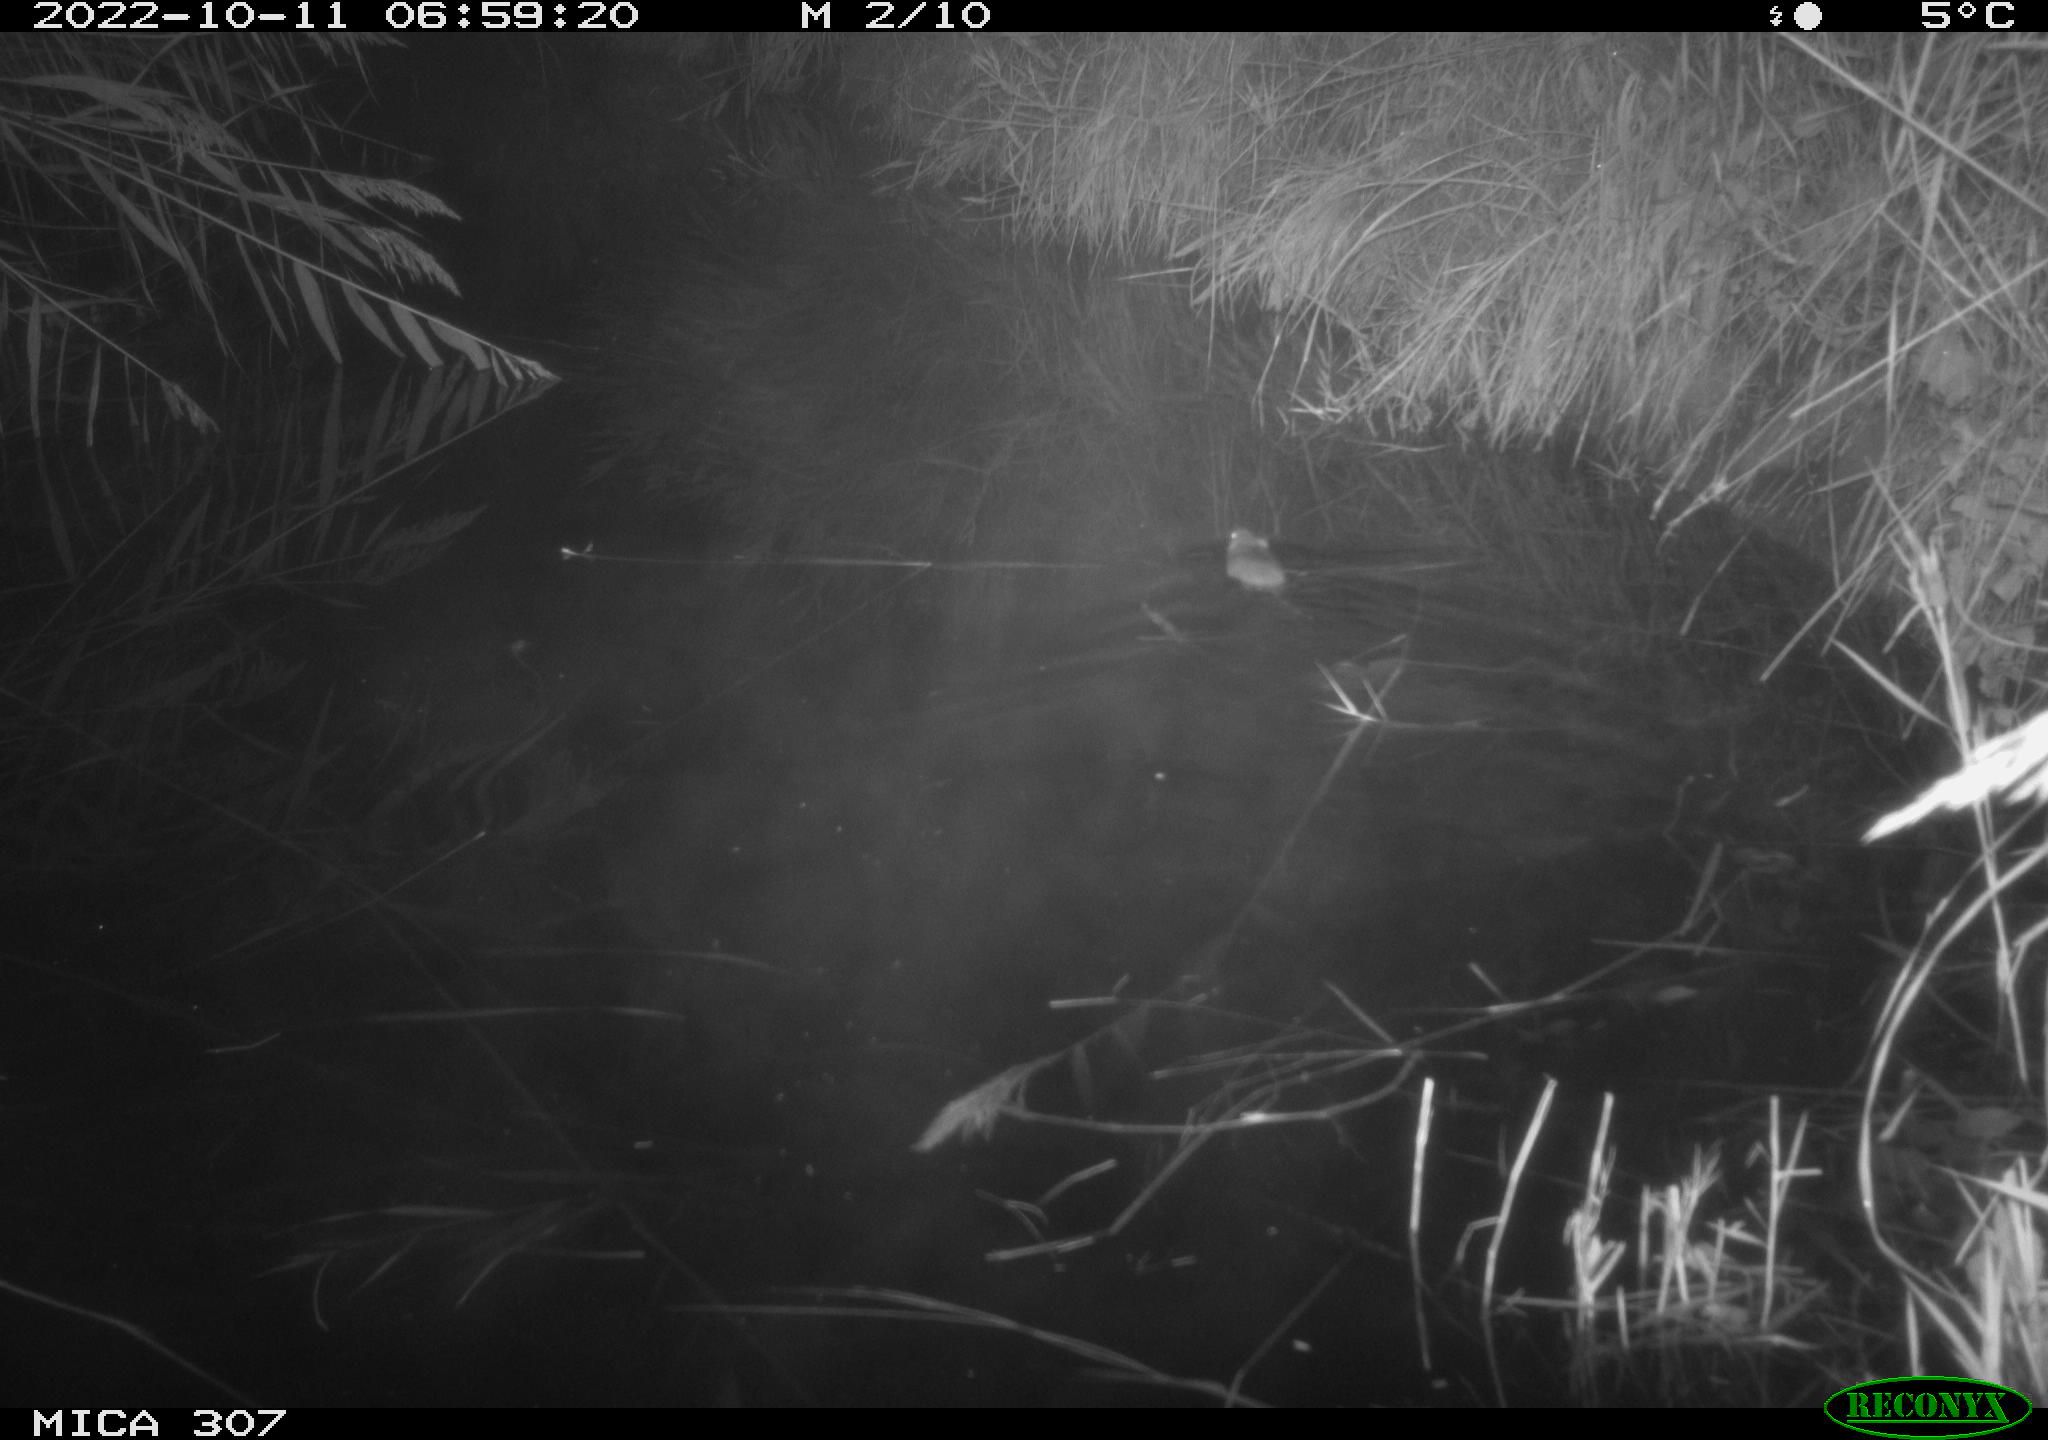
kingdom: Animalia
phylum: Chordata
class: Mammalia
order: Rodentia
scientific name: Rodentia
